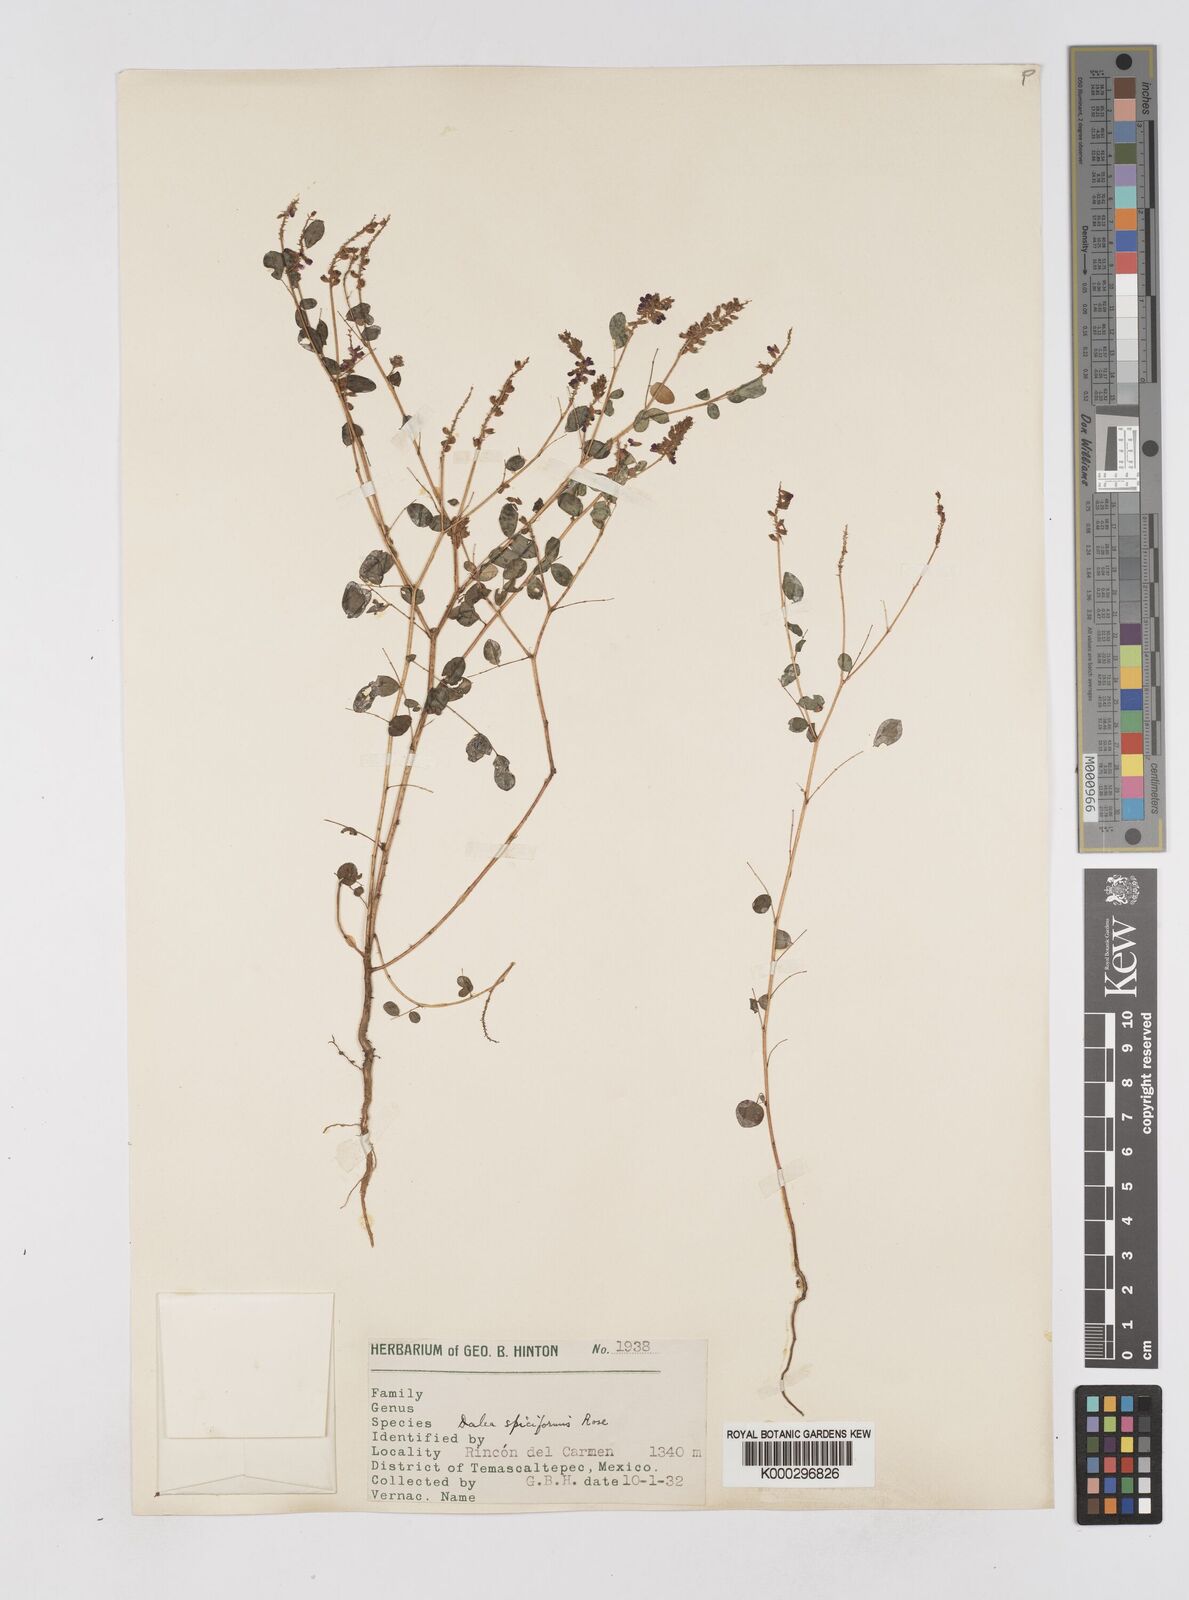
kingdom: Plantae
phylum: Tracheophyta
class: Magnoliopsida
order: Fabales
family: Fabaceae
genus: Marina
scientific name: Marina spiciformis
